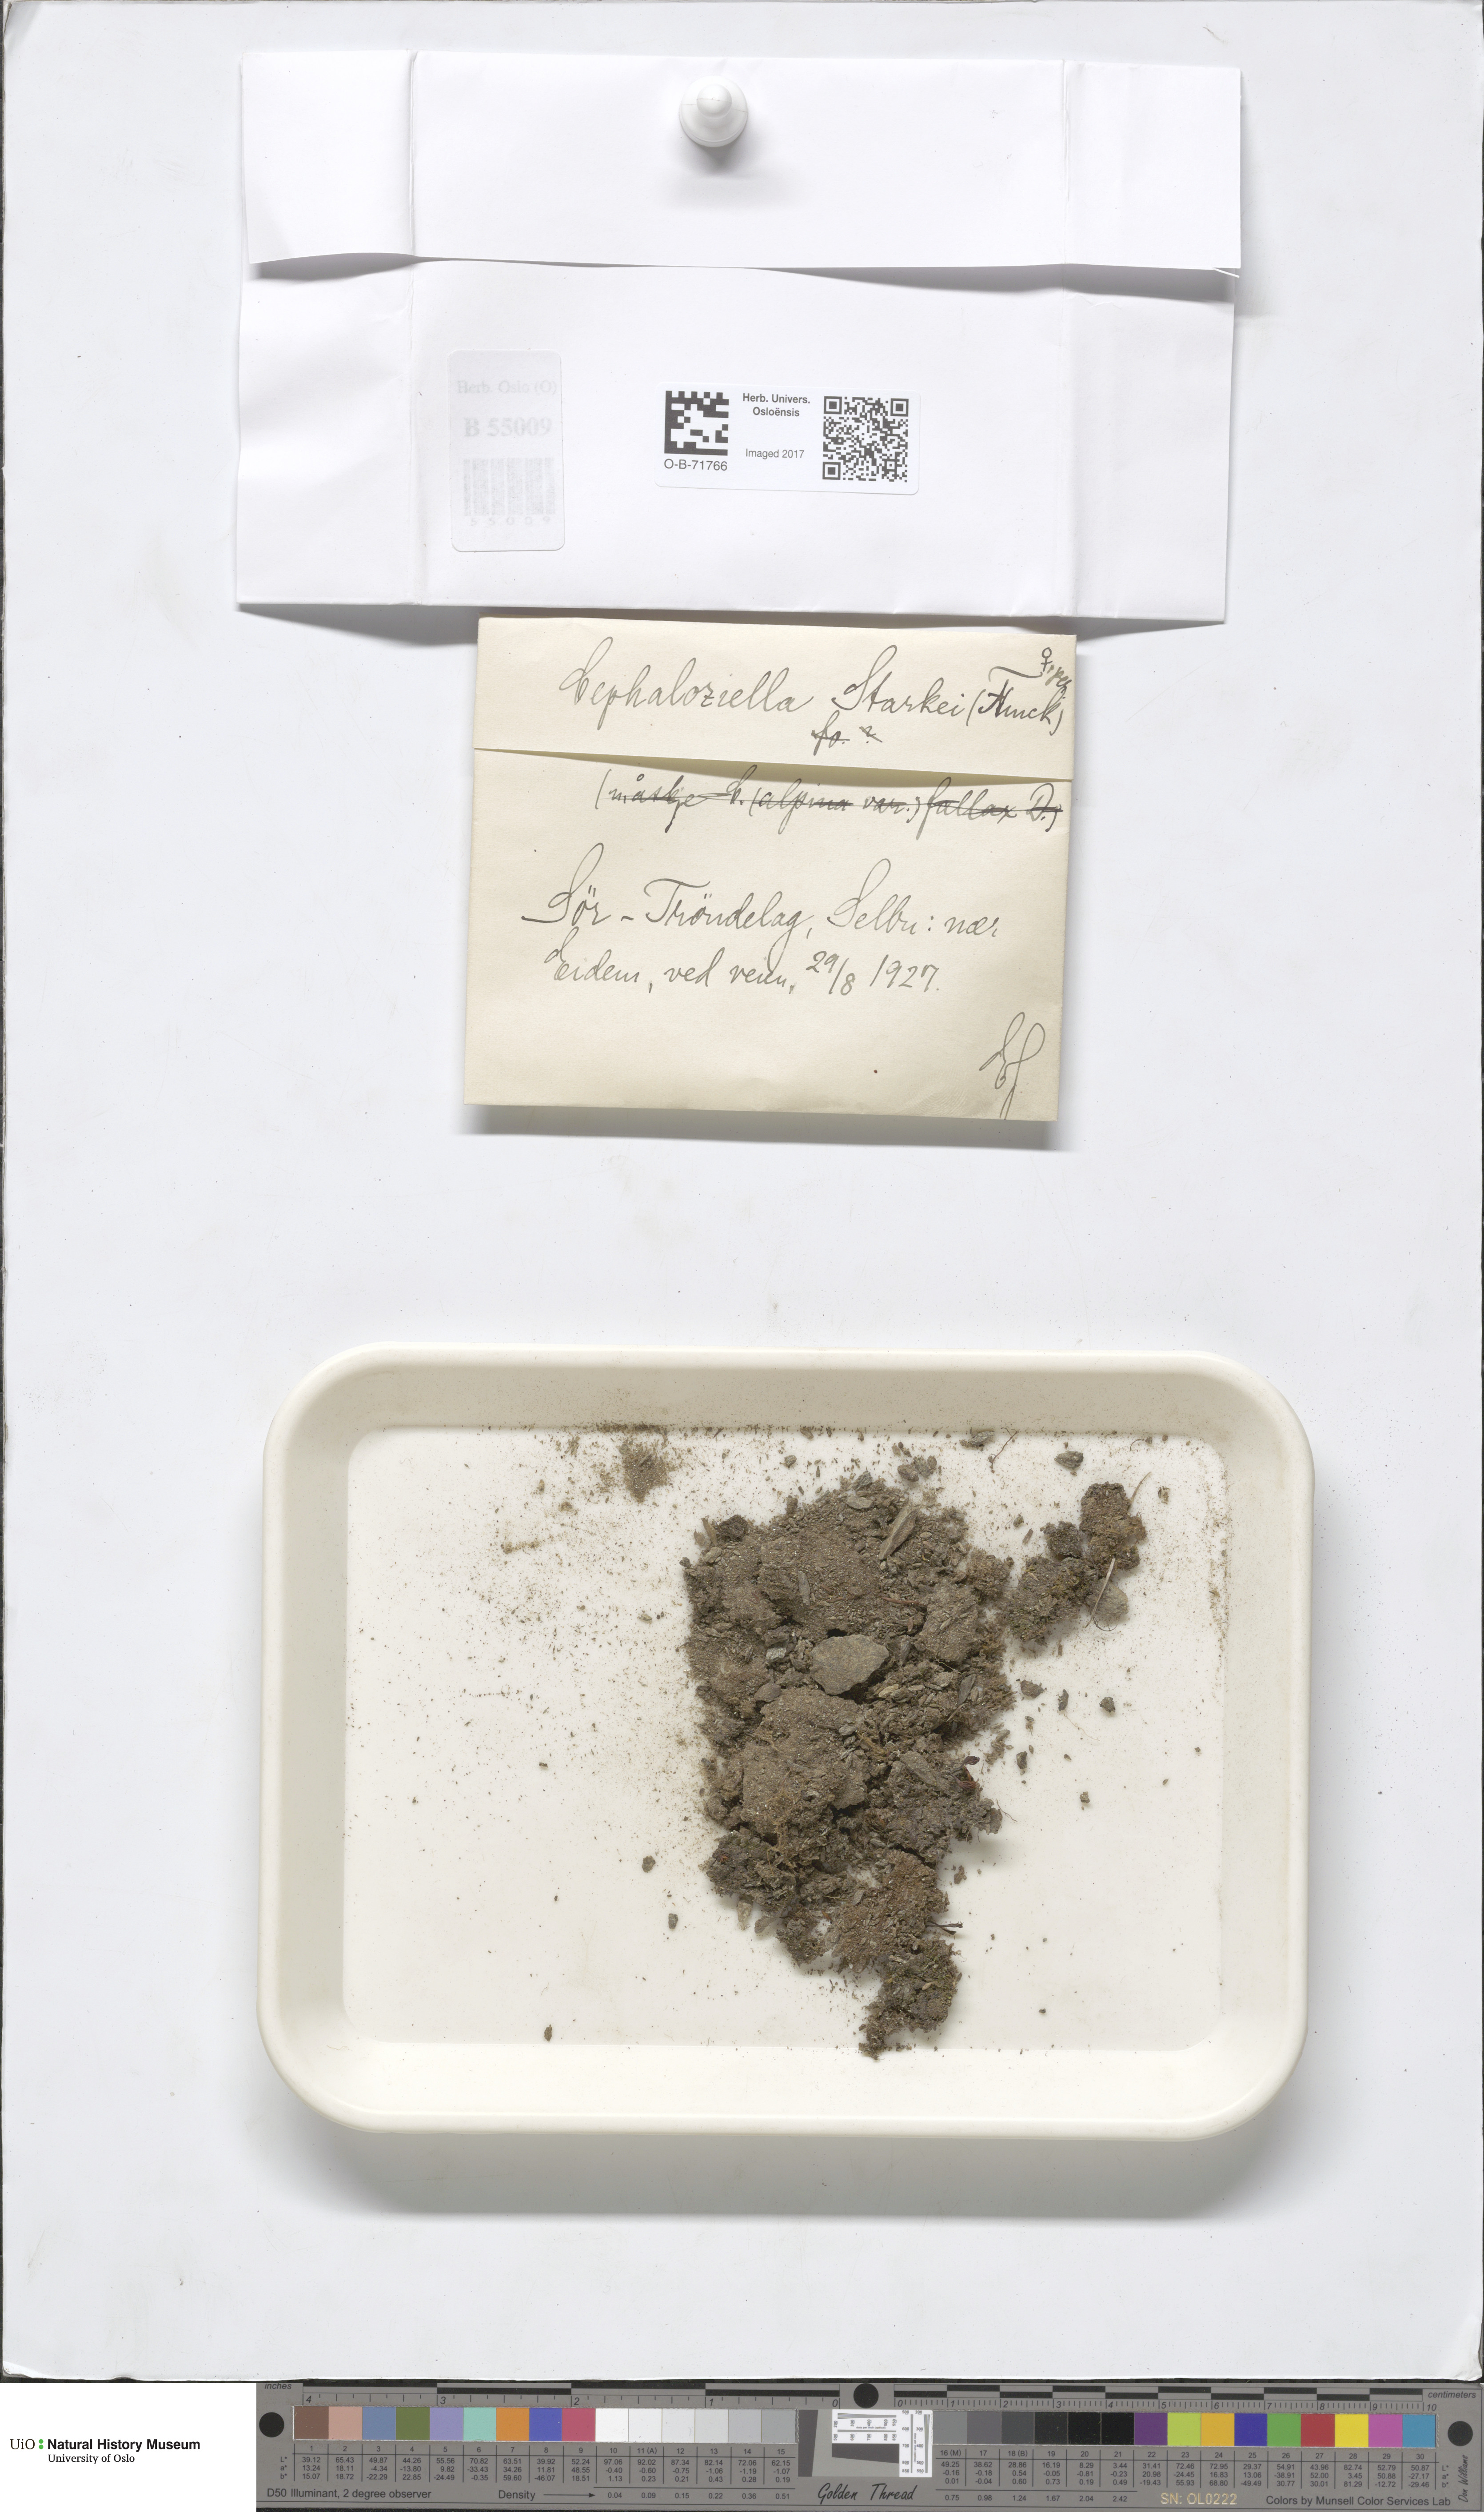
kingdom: Plantae
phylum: Marchantiophyta
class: Jungermanniopsida
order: Jungermanniales
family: Cephaloziellaceae
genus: Cephaloziella
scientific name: Cephaloziella varians
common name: Arctic threadwort
